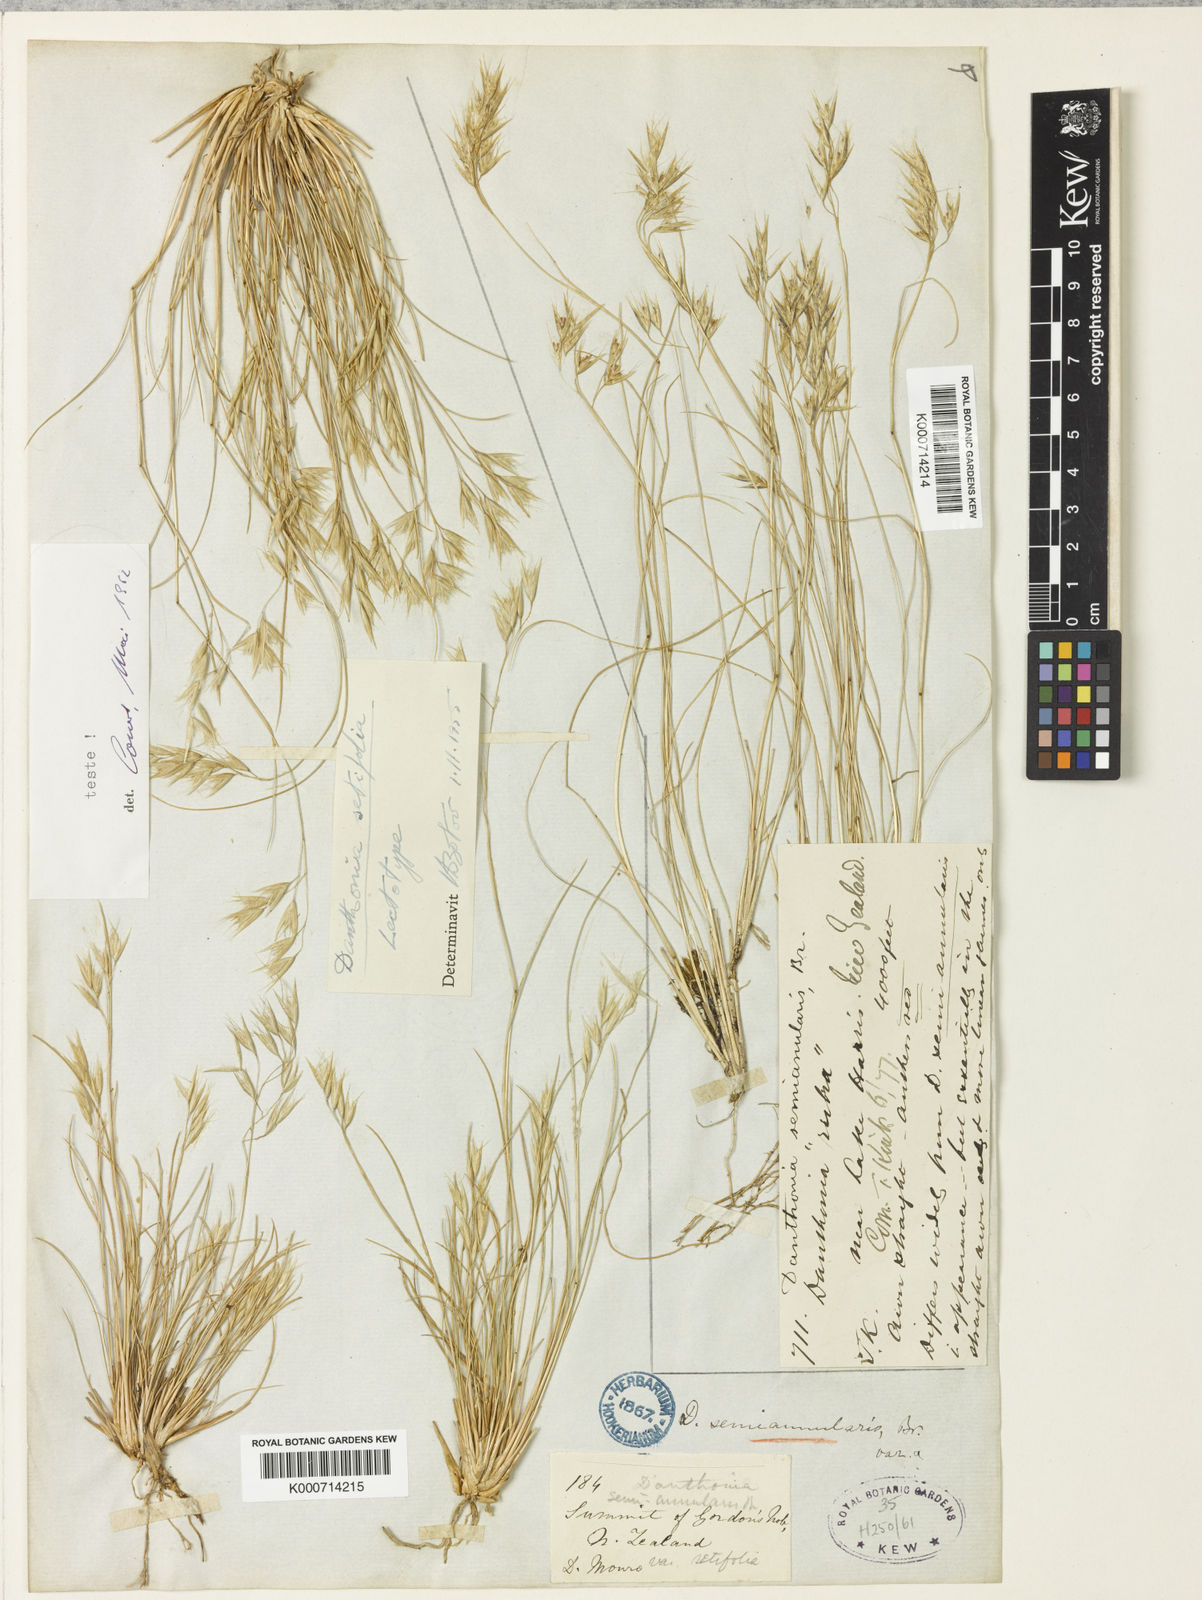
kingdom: Plantae
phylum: Tracheophyta
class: Liliopsida
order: Poales
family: Poaceae
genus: Rytidosperma
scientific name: Rytidosperma setifolium
